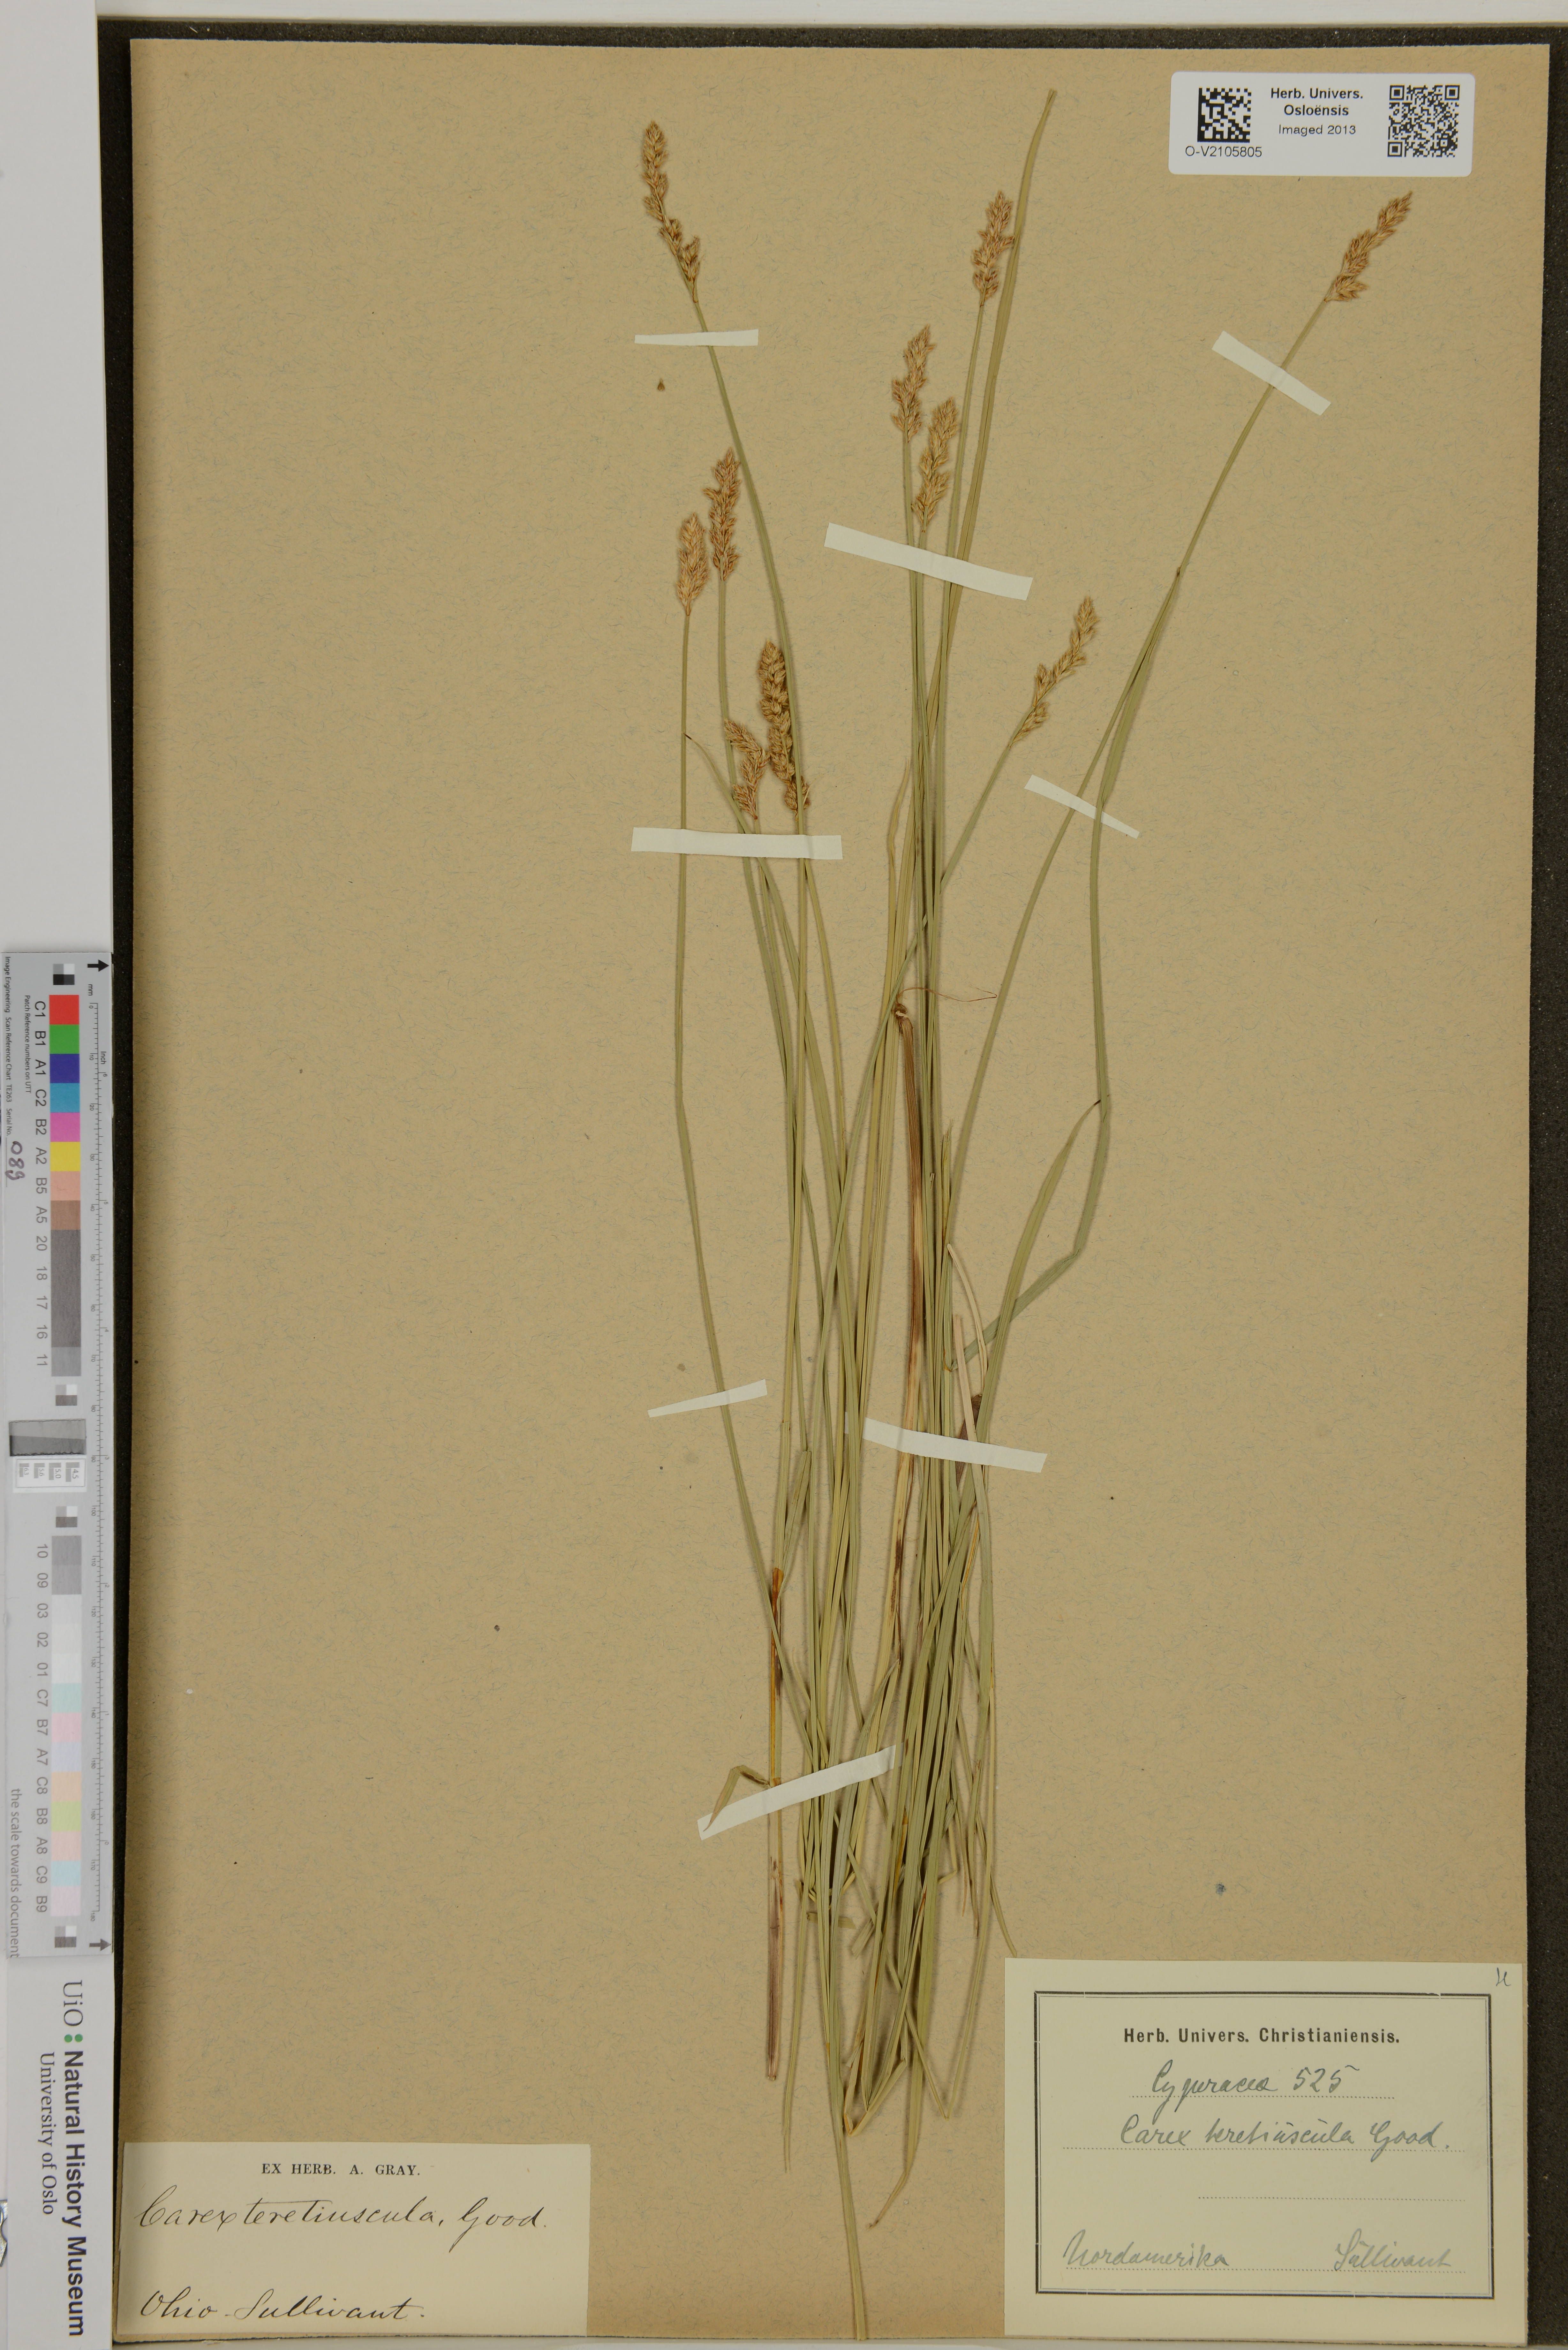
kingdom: Plantae
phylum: Tracheophyta
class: Liliopsida
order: Poales
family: Cyperaceae
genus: Carex
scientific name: Carex diandra
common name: Lesser tussock-sedge
